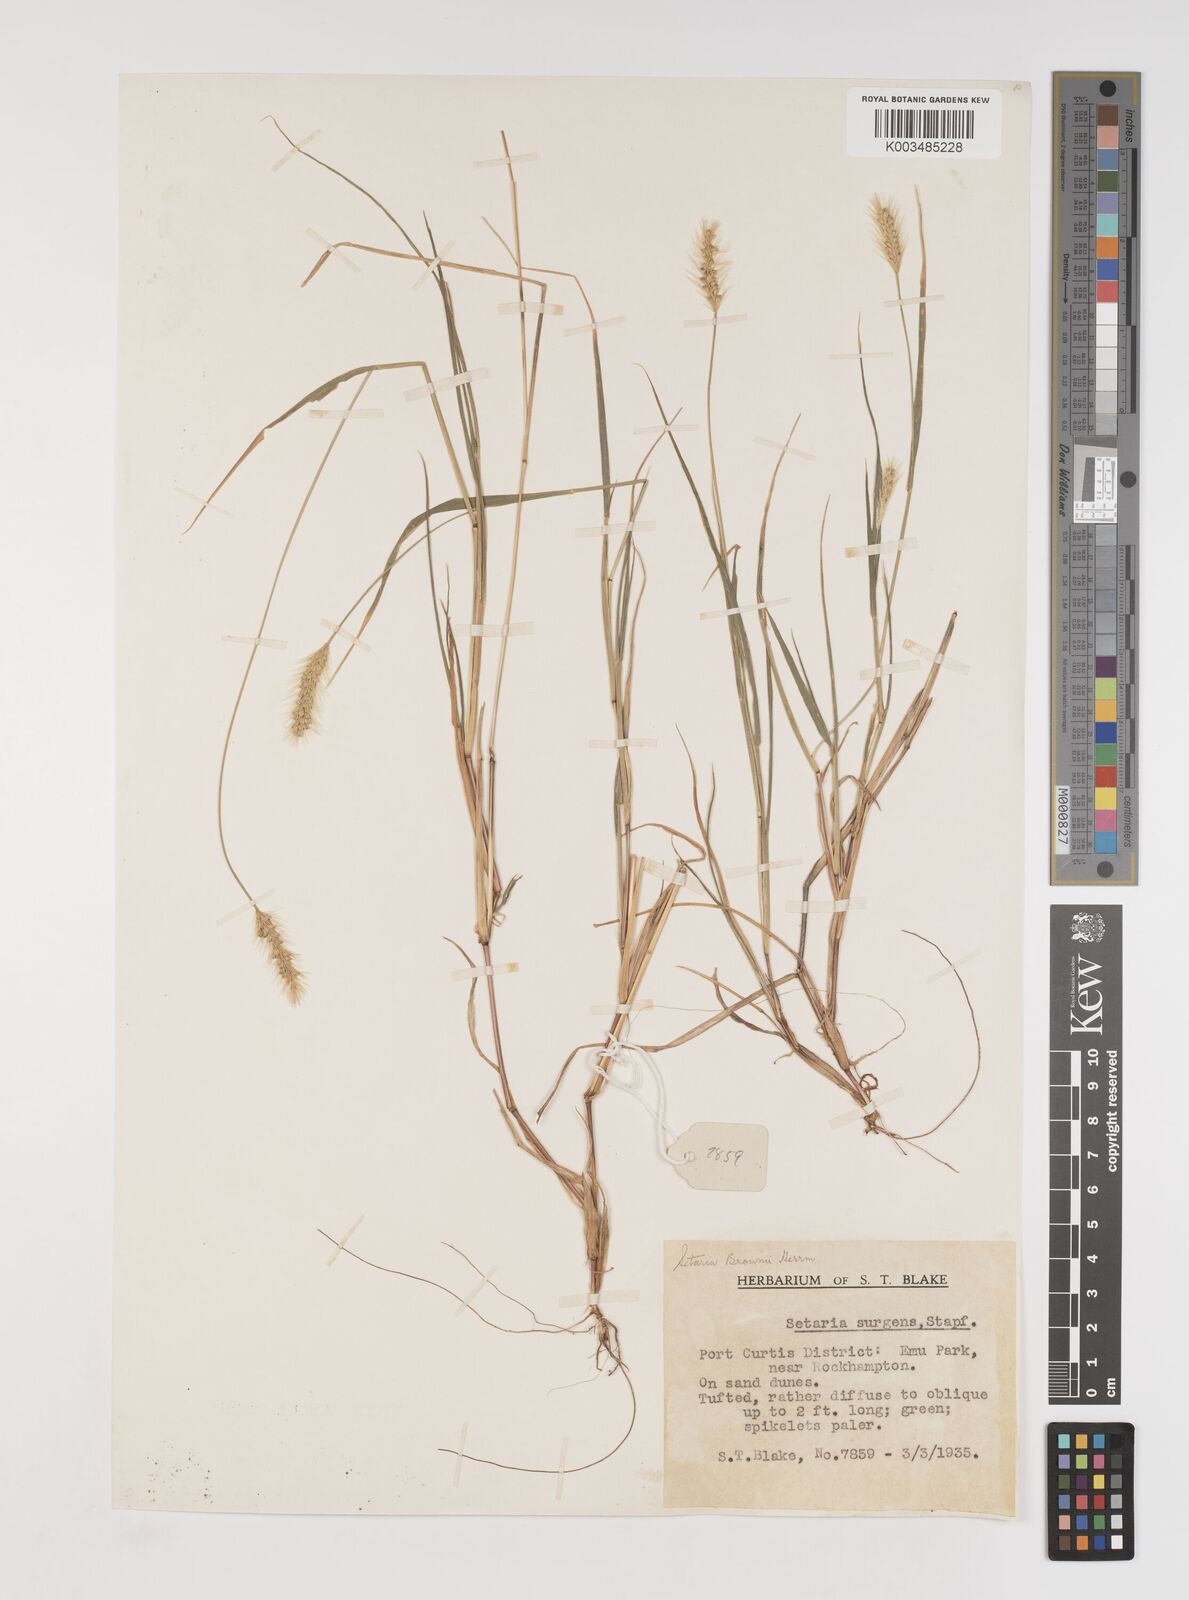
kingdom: Plantae
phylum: Tracheophyta
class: Liliopsida
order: Poales
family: Poaceae
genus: Setaria
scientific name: Setaria surgens
